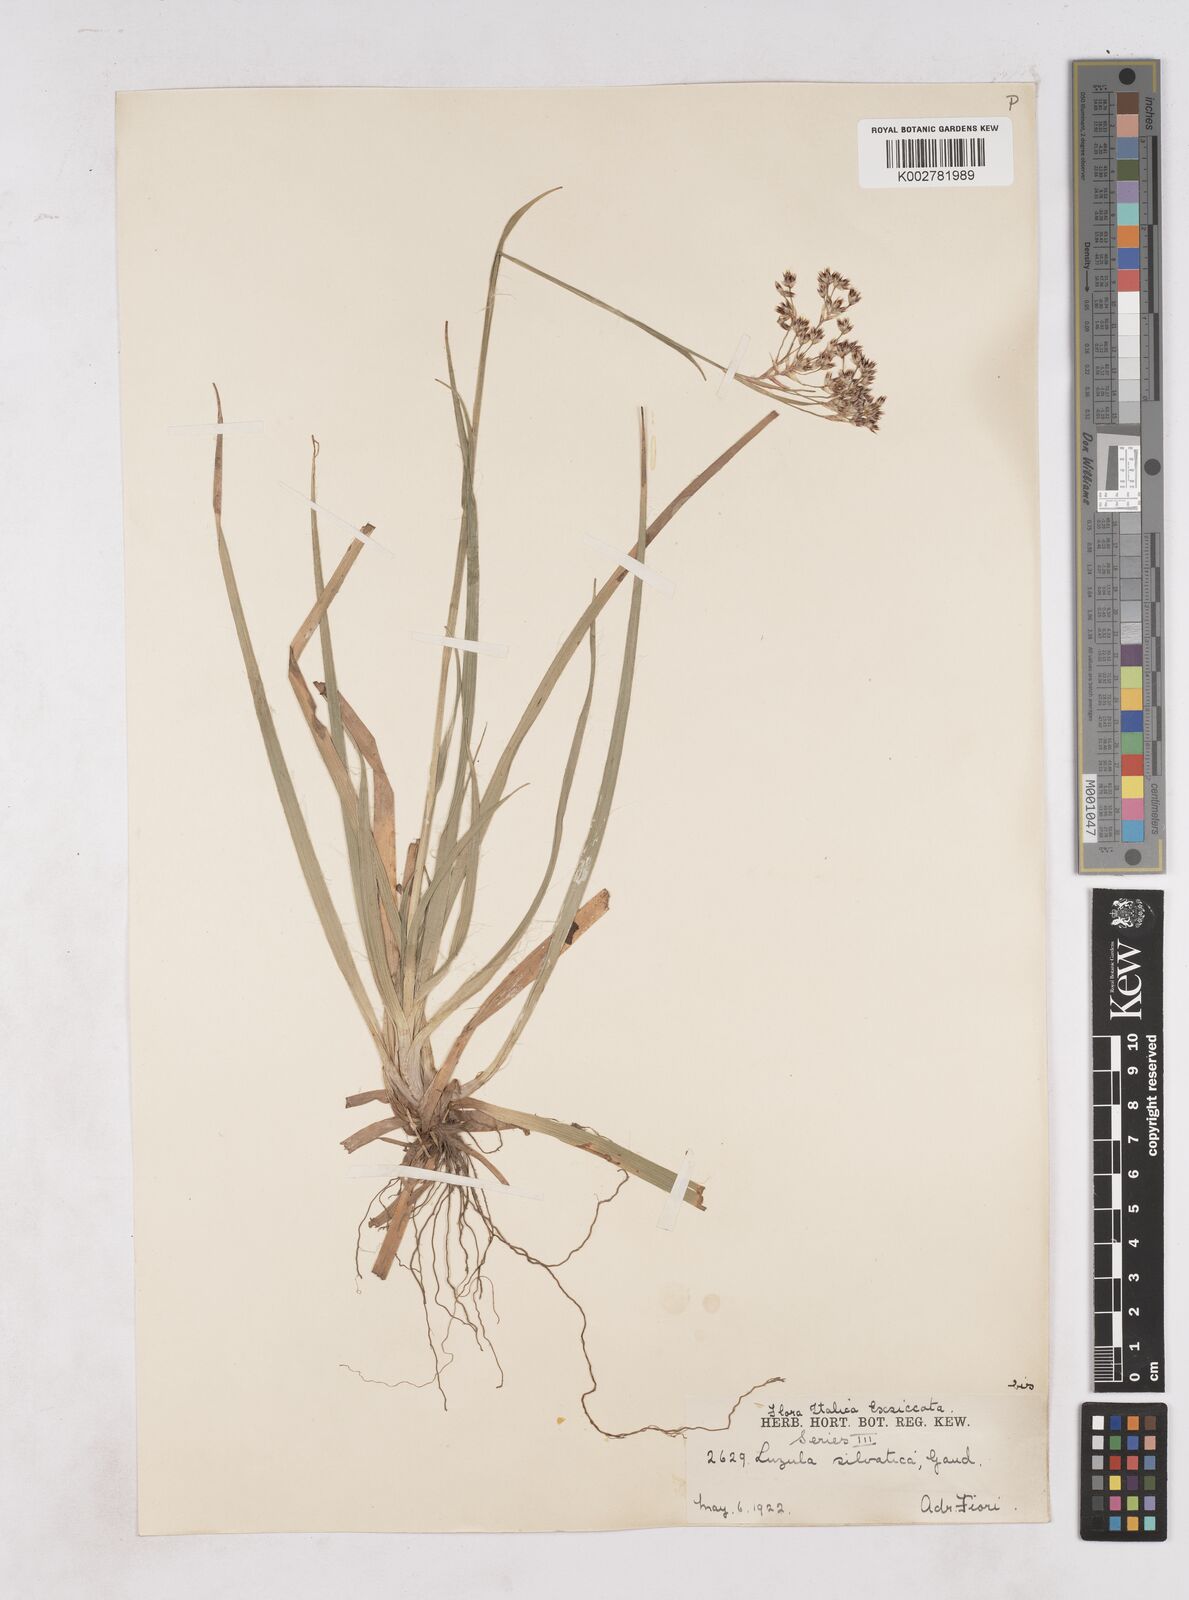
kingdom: Plantae
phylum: Tracheophyta
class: Liliopsida
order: Poales
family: Juncaceae
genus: Luzula
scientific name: Luzula sylvatica
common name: Great wood-rush
